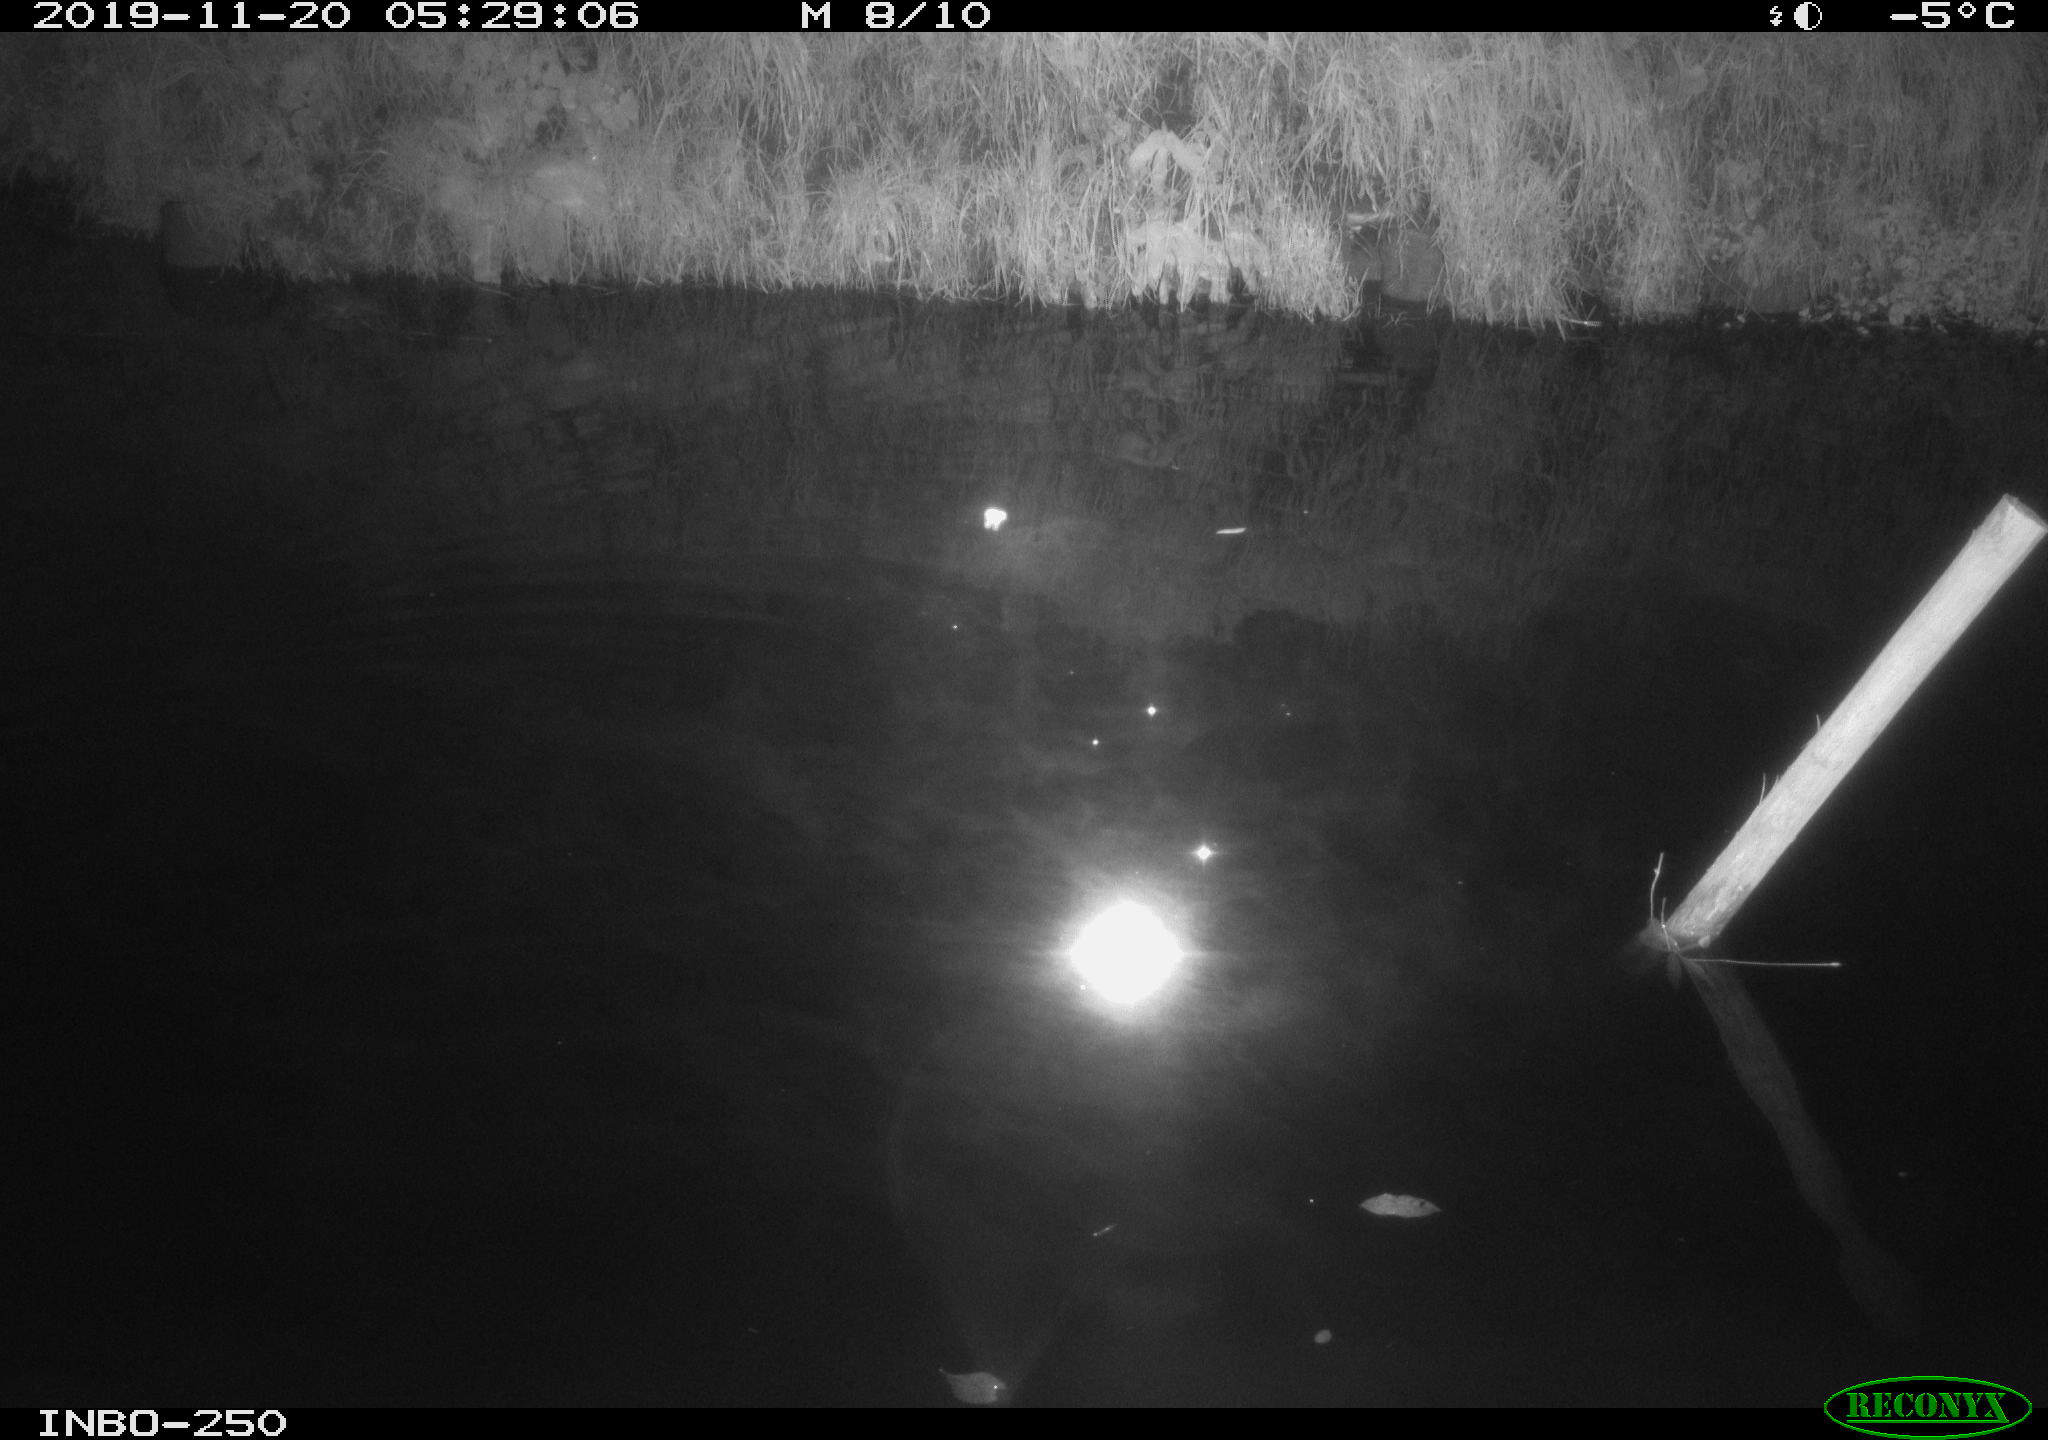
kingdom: Animalia
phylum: Chordata
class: Aves
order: Anseriformes
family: Anatidae
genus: Anas
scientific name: Anas platyrhynchos
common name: Mallard
